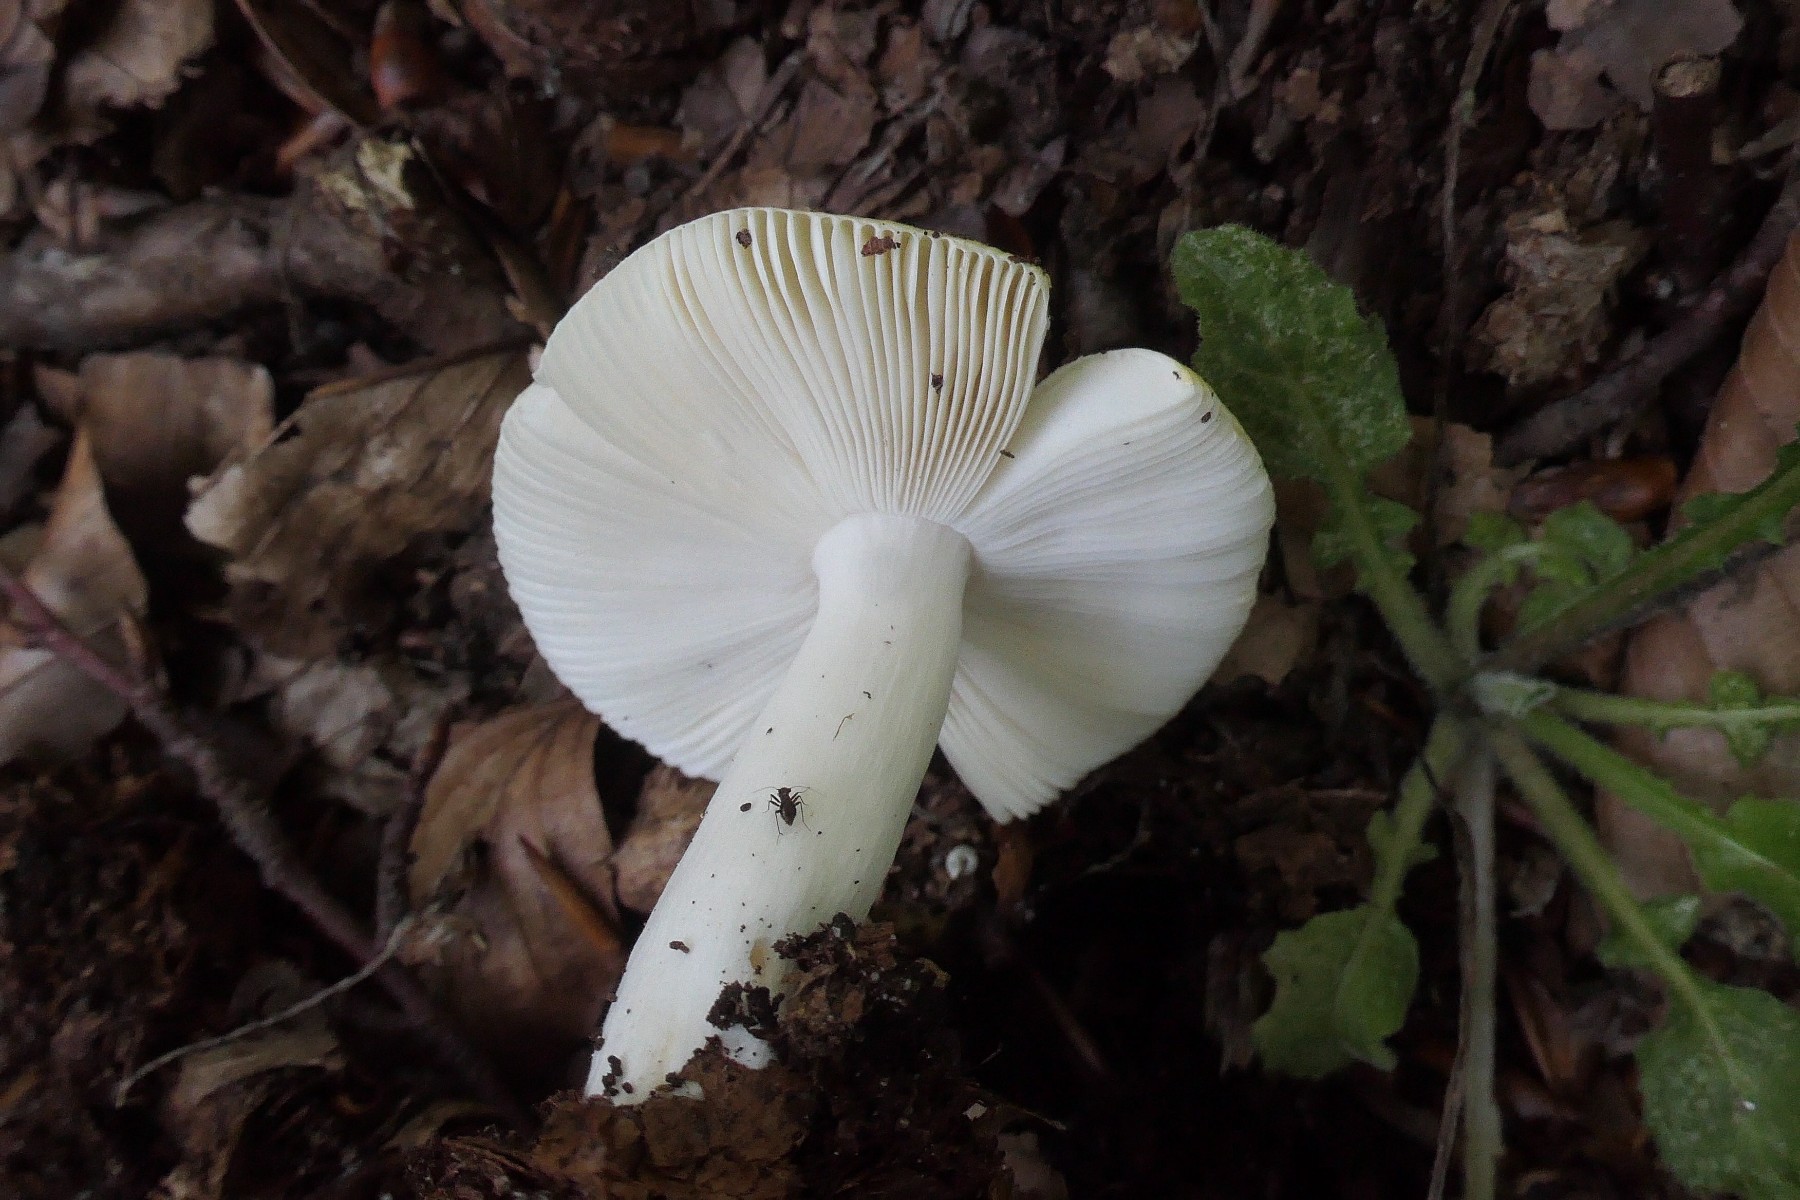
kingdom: Fungi
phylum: Basidiomycota
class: Agaricomycetes
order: Russulales
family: Russulaceae
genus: Russula
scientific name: Russula solaris
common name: sol-skørhat
